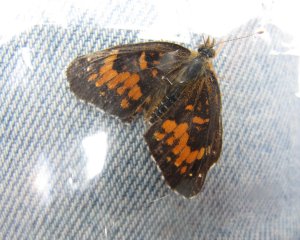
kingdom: Animalia
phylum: Arthropoda
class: Insecta
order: Lepidoptera
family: Nymphalidae
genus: Chlosyne
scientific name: Chlosyne harrisii
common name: Harris's Checkerspot
